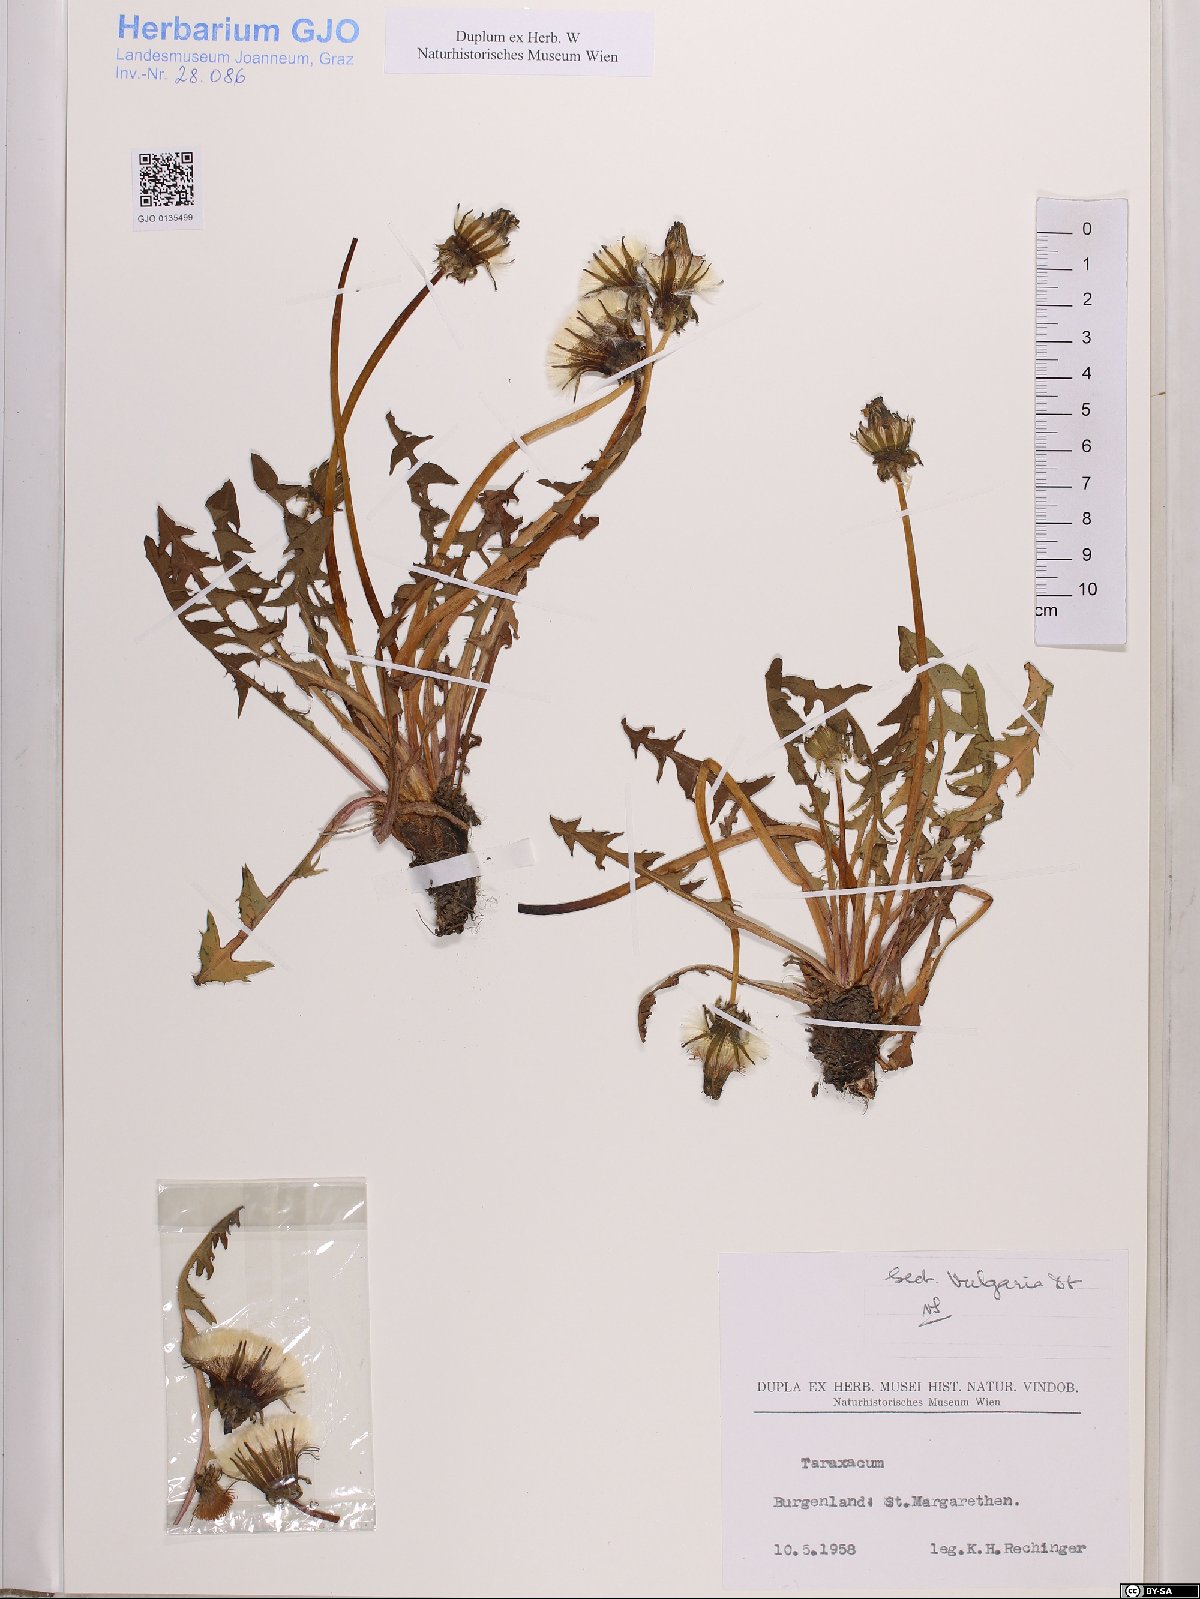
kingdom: Plantae
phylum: Tracheophyta
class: Magnoliopsida
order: Asterales
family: Asteraceae
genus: Taraxacum
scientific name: Taraxacum officinale
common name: Common dandelion
